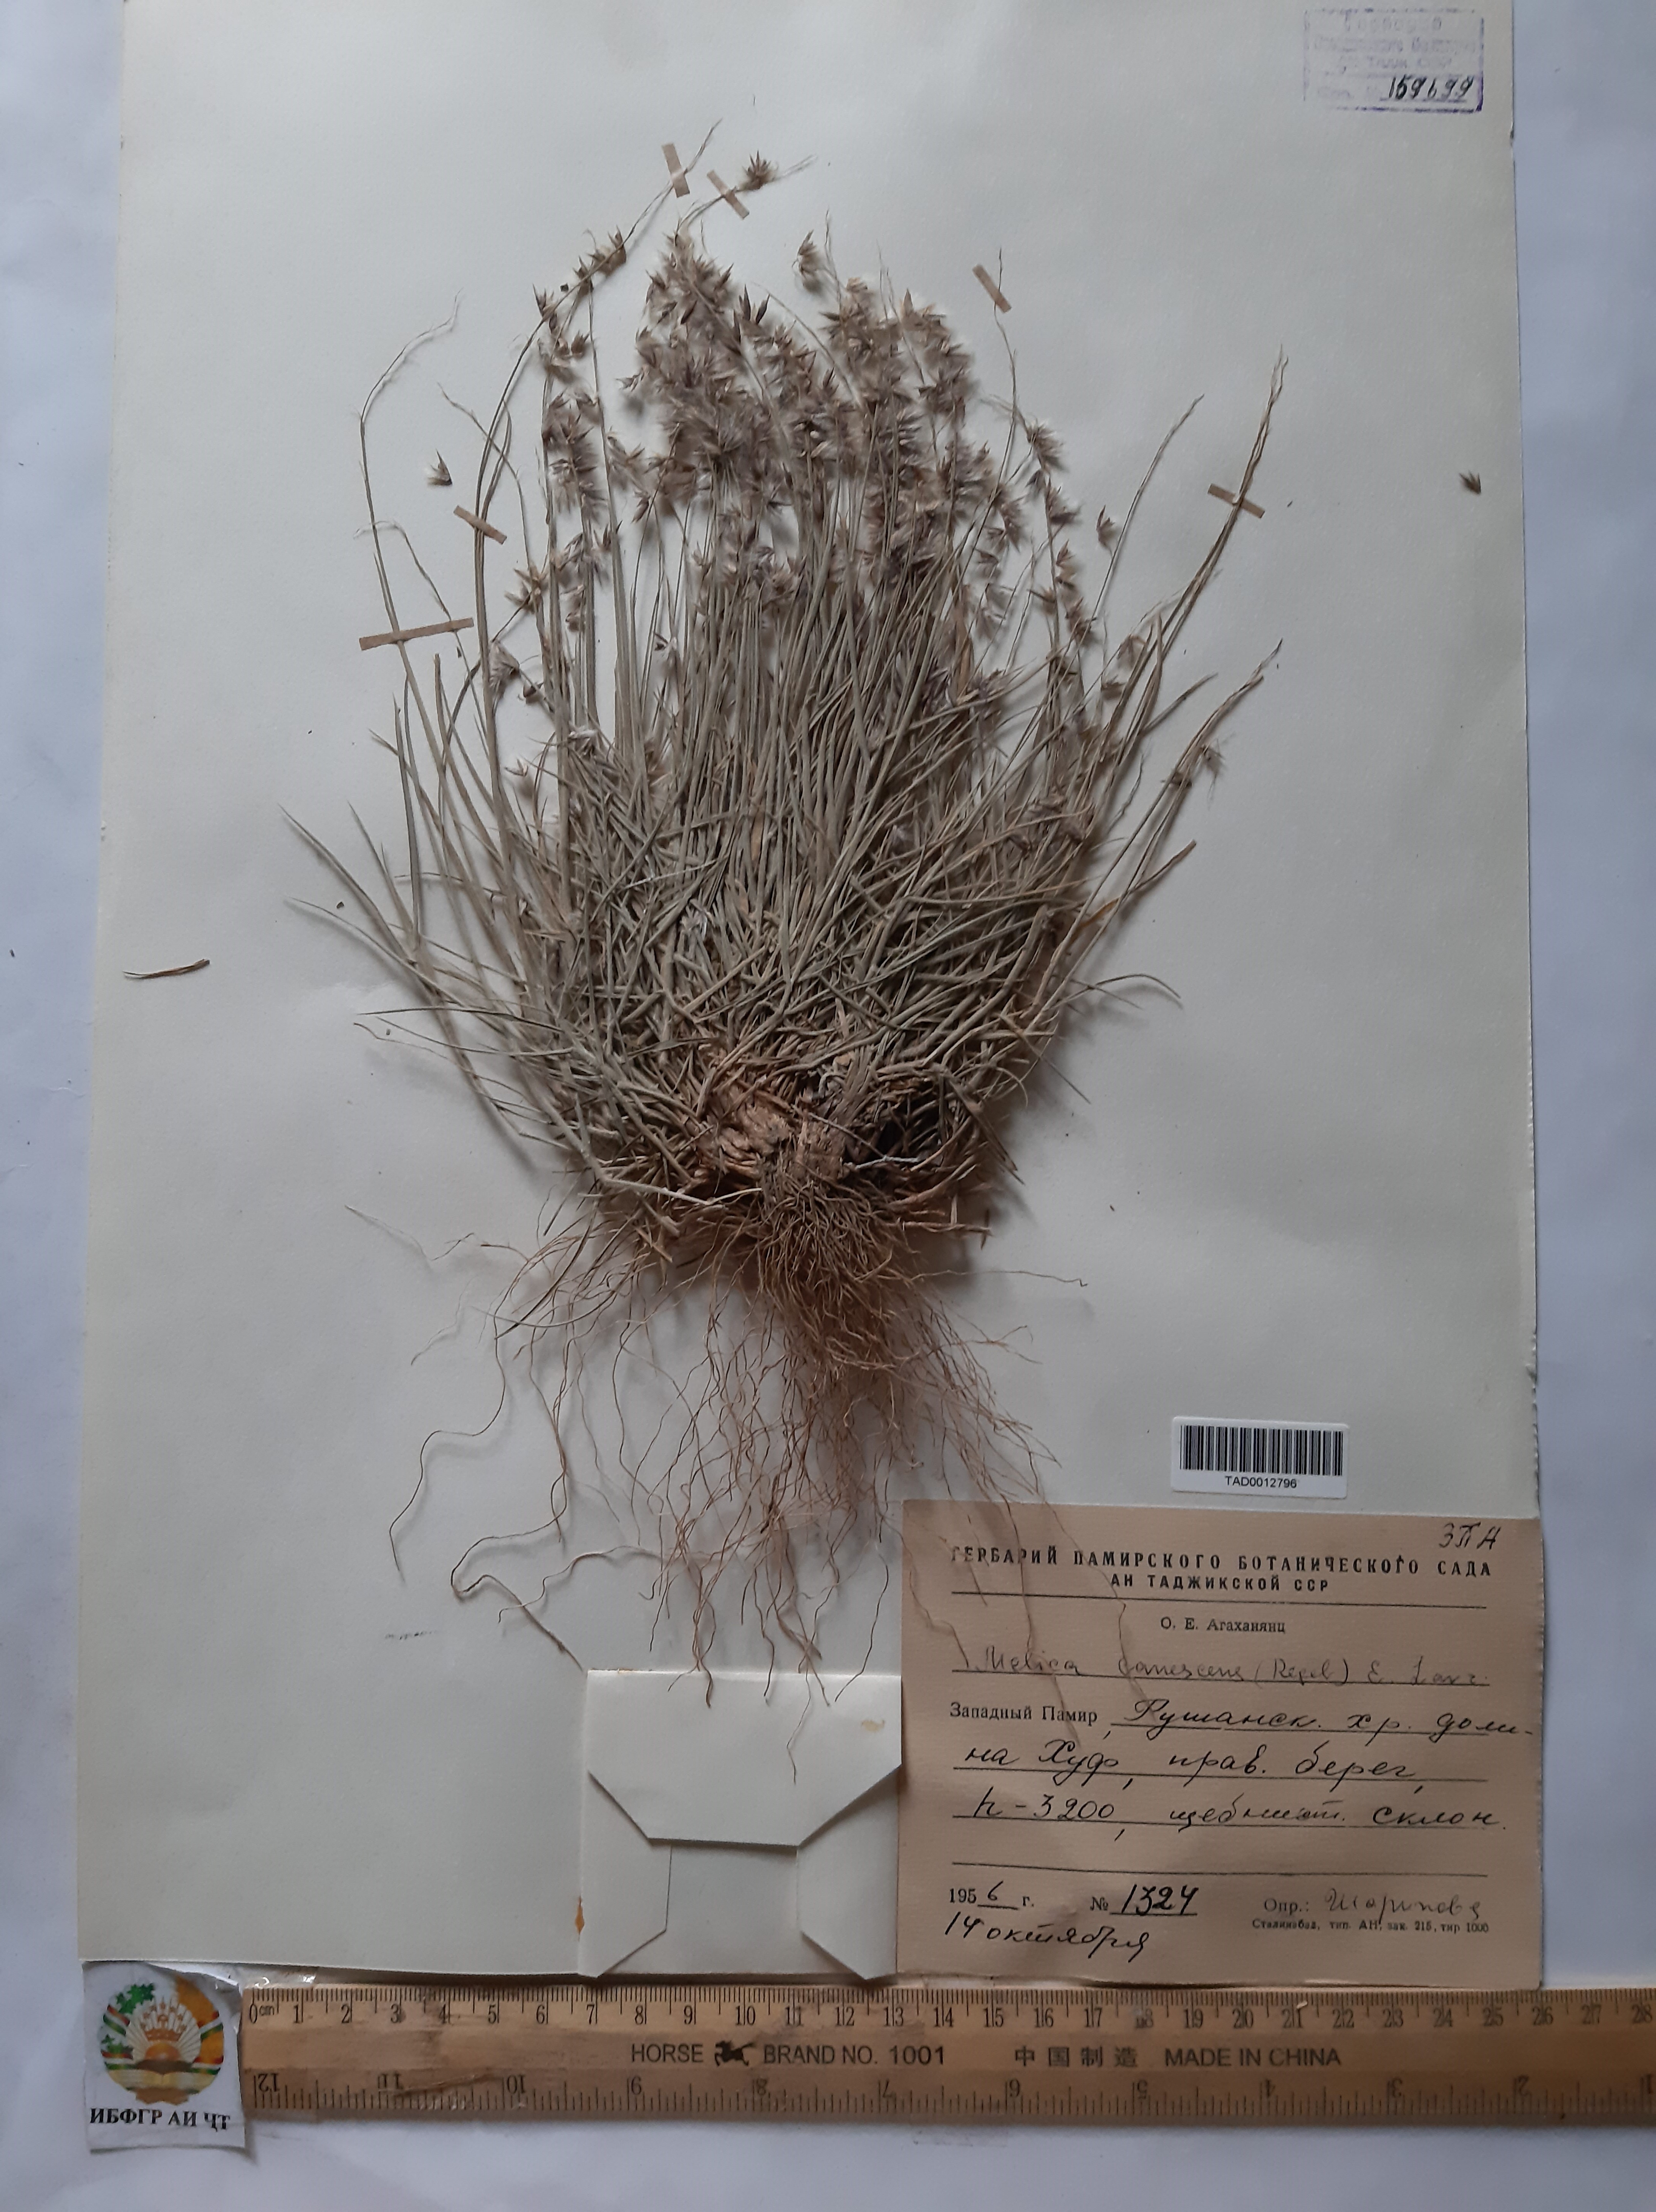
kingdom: Plantae
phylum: Tracheophyta
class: Liliopsida
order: Poales
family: Poaceae
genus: Melica
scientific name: Melica persica
